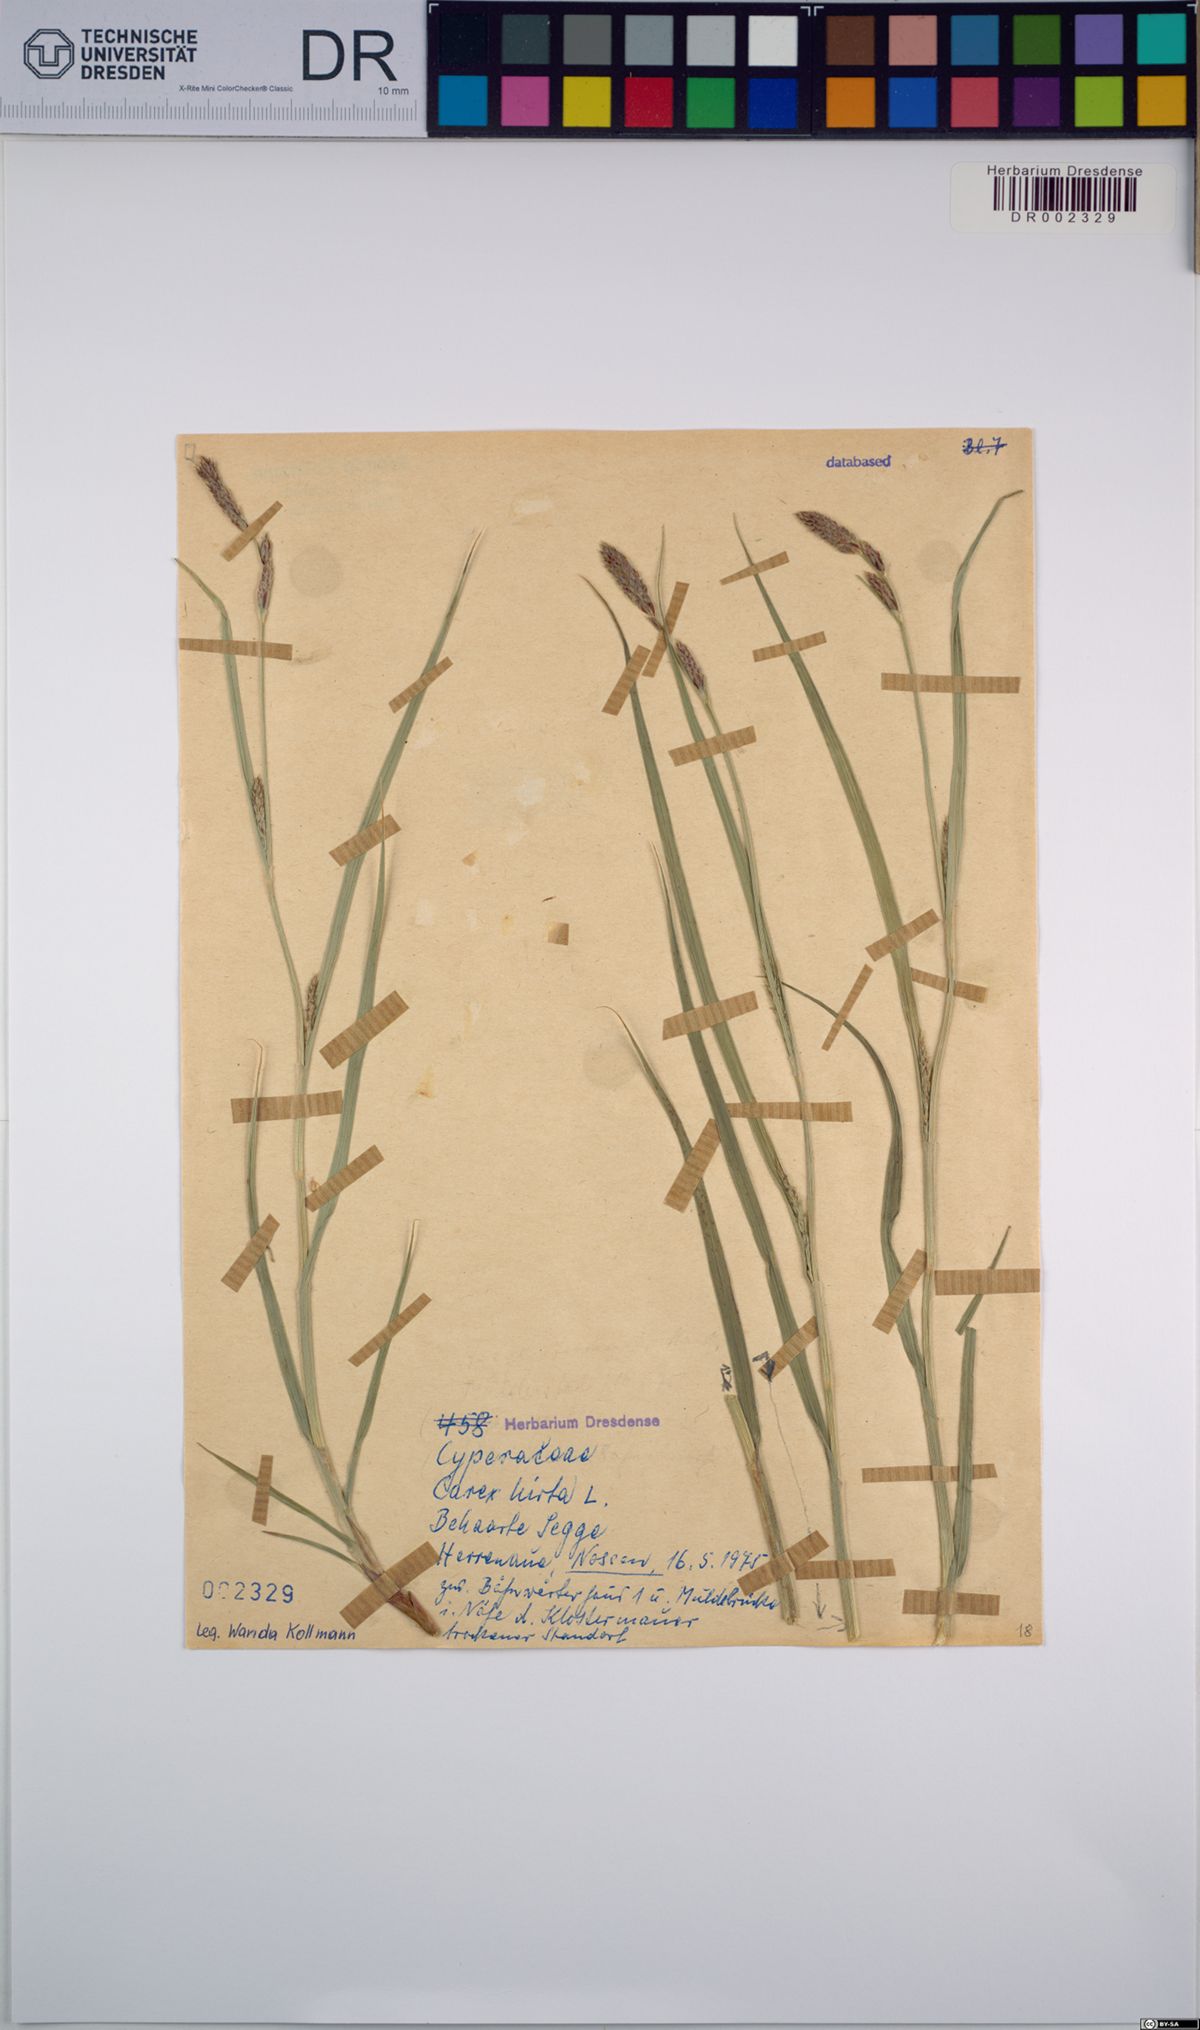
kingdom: Plantae
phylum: Tracheophyta
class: Liliopsida
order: Poales
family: Cyperaceae
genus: Carex
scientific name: Carex hirta
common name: Hairy sedge
